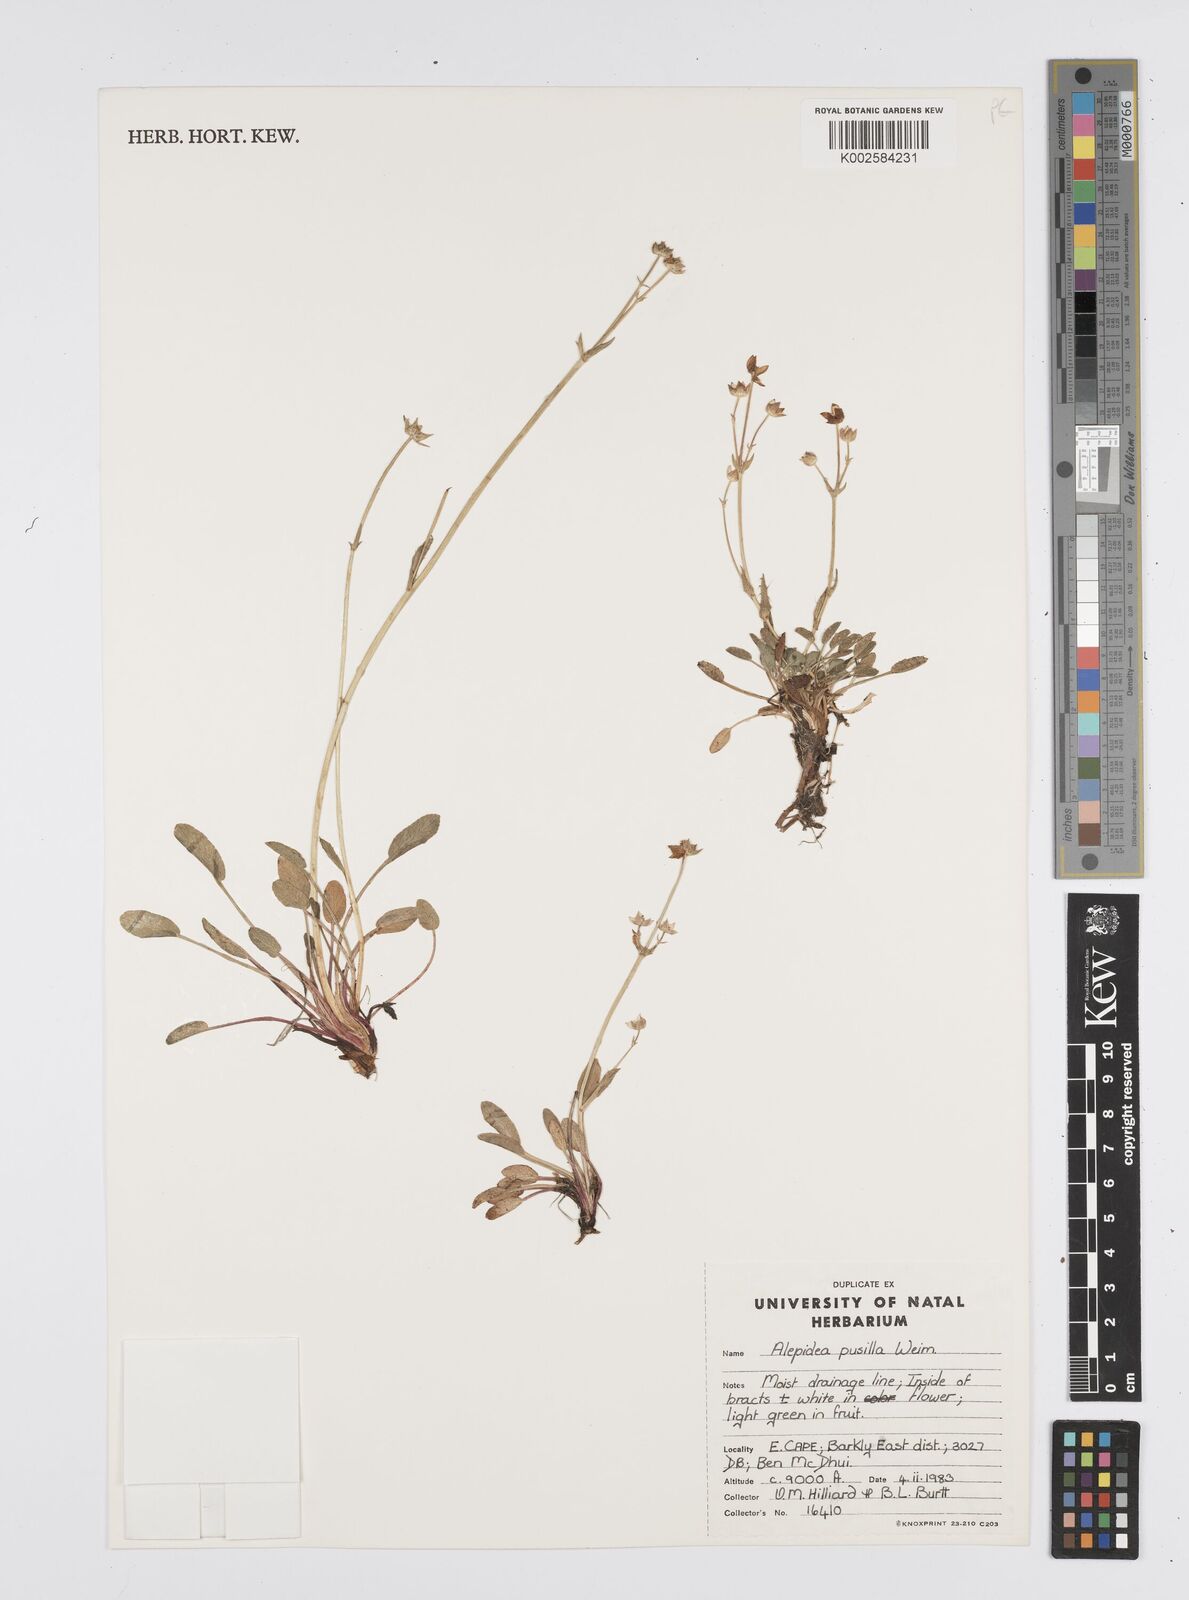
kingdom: Plantae
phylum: Tracheophyta
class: Magnoliopsida
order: Apiales
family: Apiaceae
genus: Alepidea
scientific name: Alepidea pusilla
